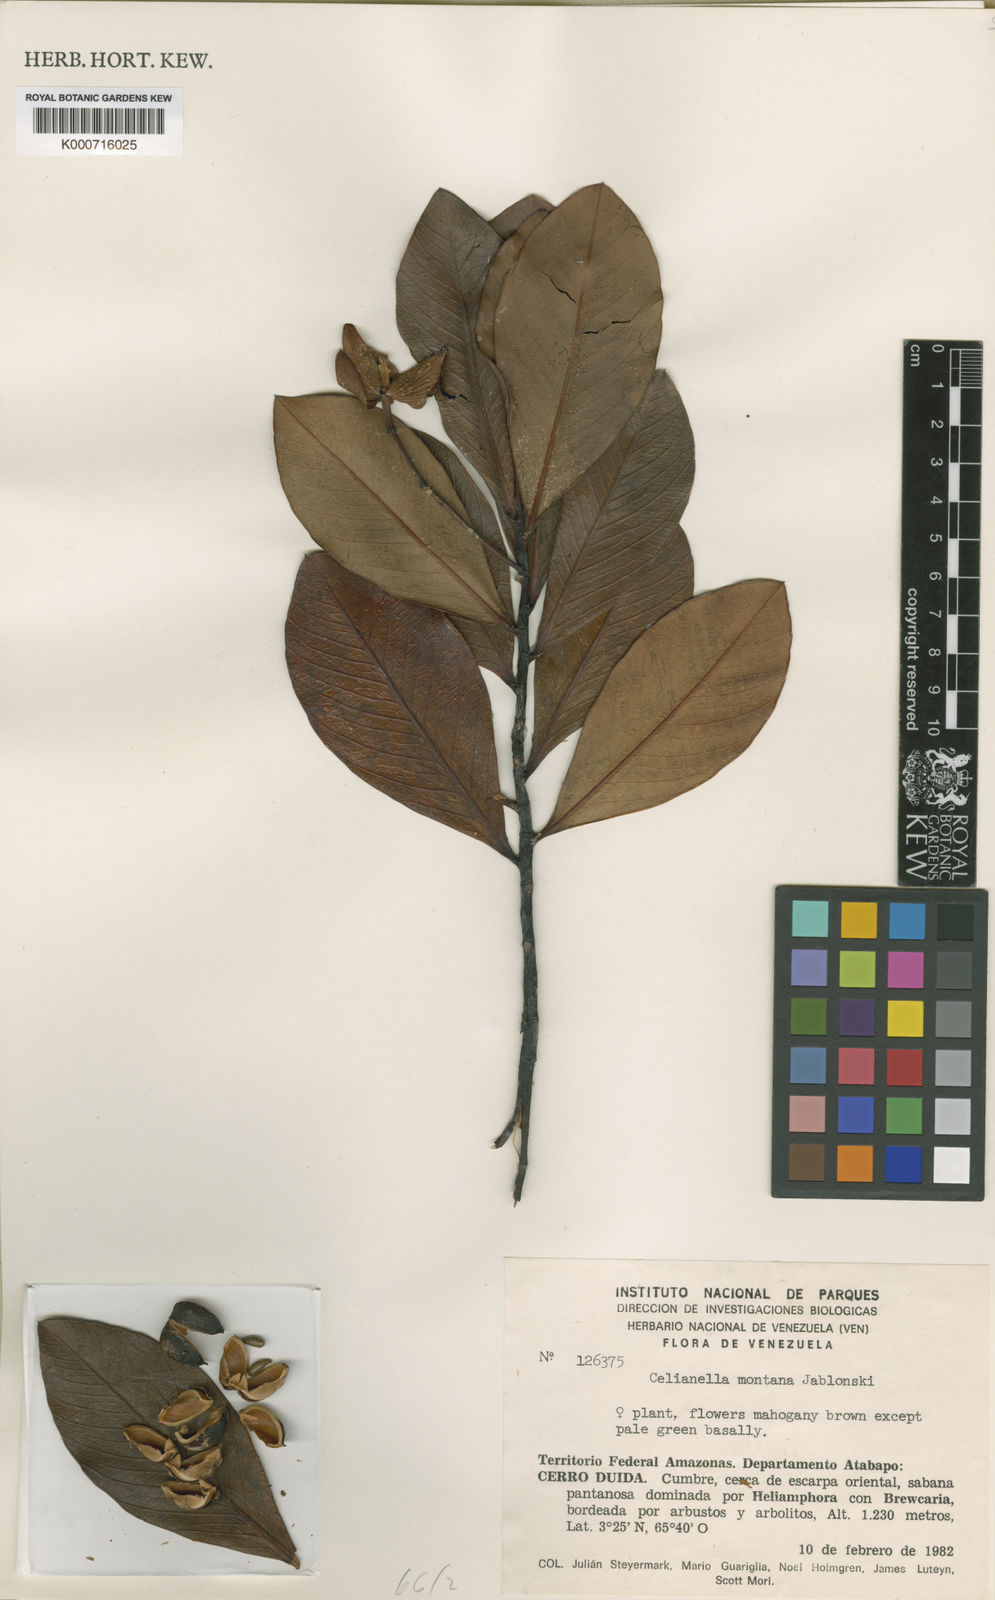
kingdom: Plantae
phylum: Tracheophyta
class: Magnoliopsida
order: Malpighiales
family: Phyllanthaceae
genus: Celianella
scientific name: Celianella montana
